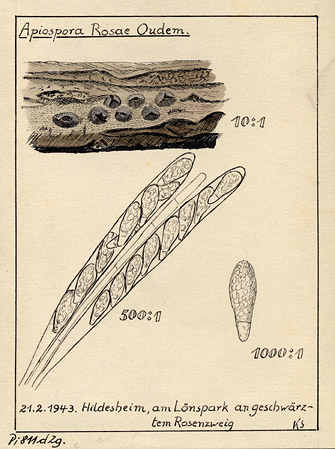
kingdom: Fungi
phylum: Ascomycota
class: Sordariomycetes
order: Xylariales
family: Apiosporaceae
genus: Apiospora
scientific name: Apiospora rosae
